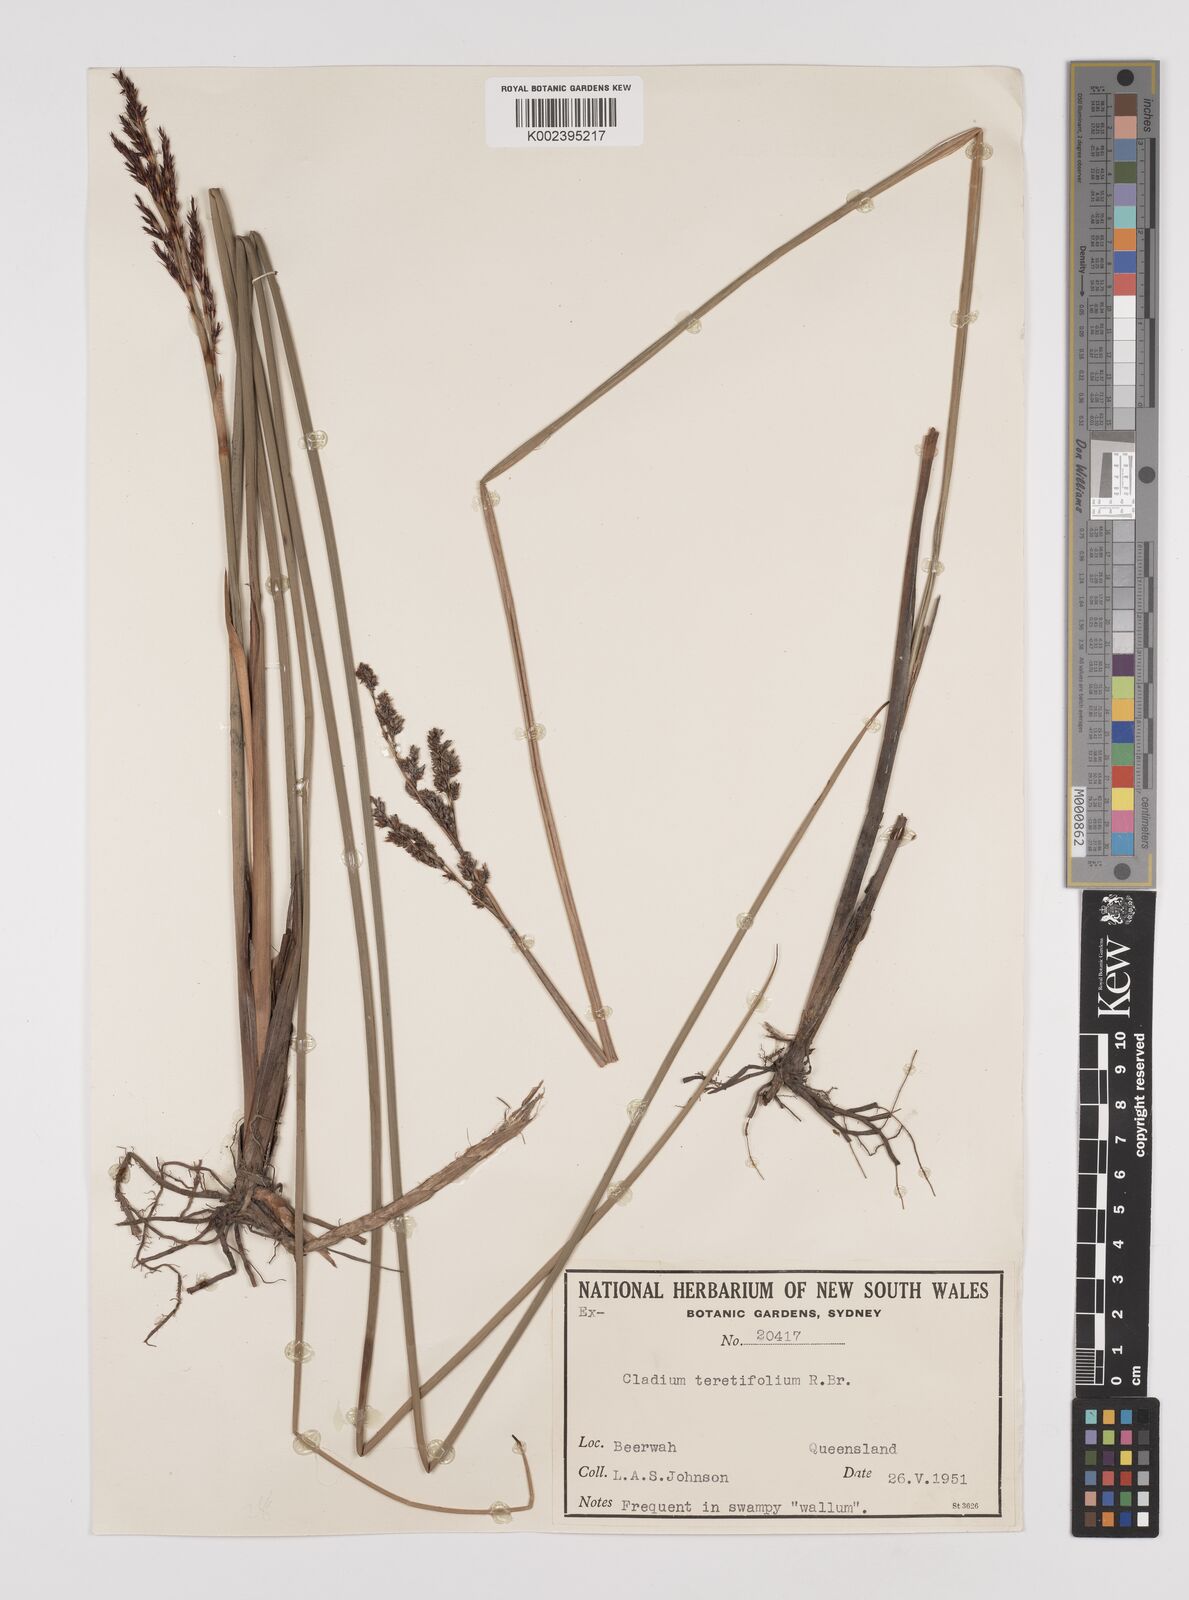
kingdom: Plantae
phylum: Tracheophyta
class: Liliopsida
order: Poales
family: Cyperaceae
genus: Machaerina
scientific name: Machaerina teretifolia
